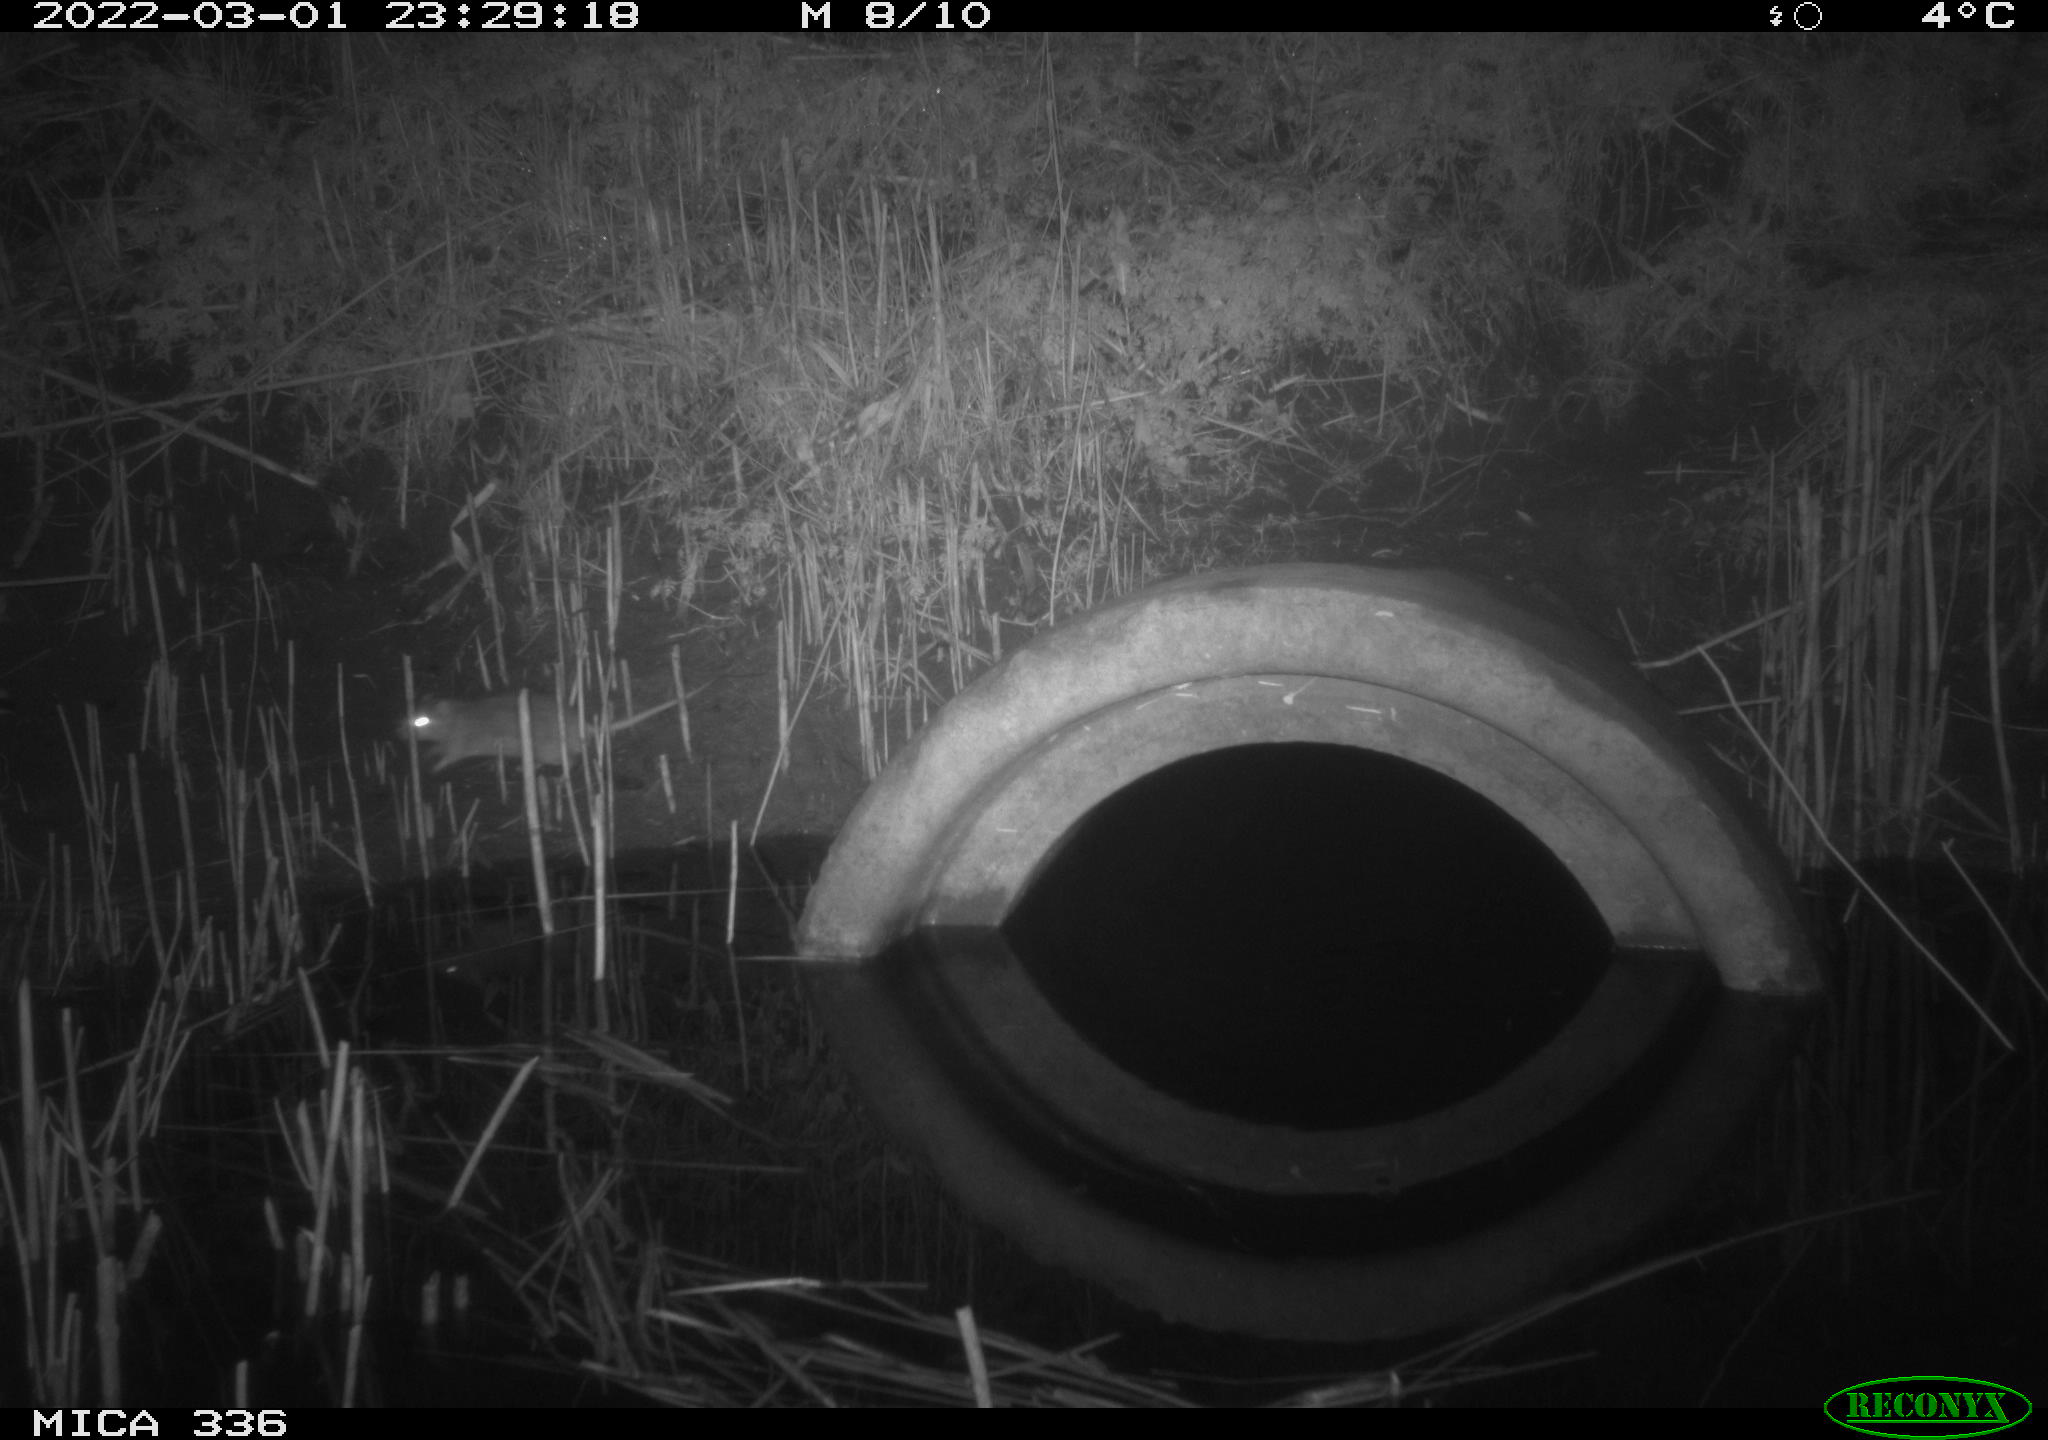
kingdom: Animalia
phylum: Chordata
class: Mammalia
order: Rodentia
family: Muridae
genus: Rattus
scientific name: Rattus norvegicus
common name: Brown rat
